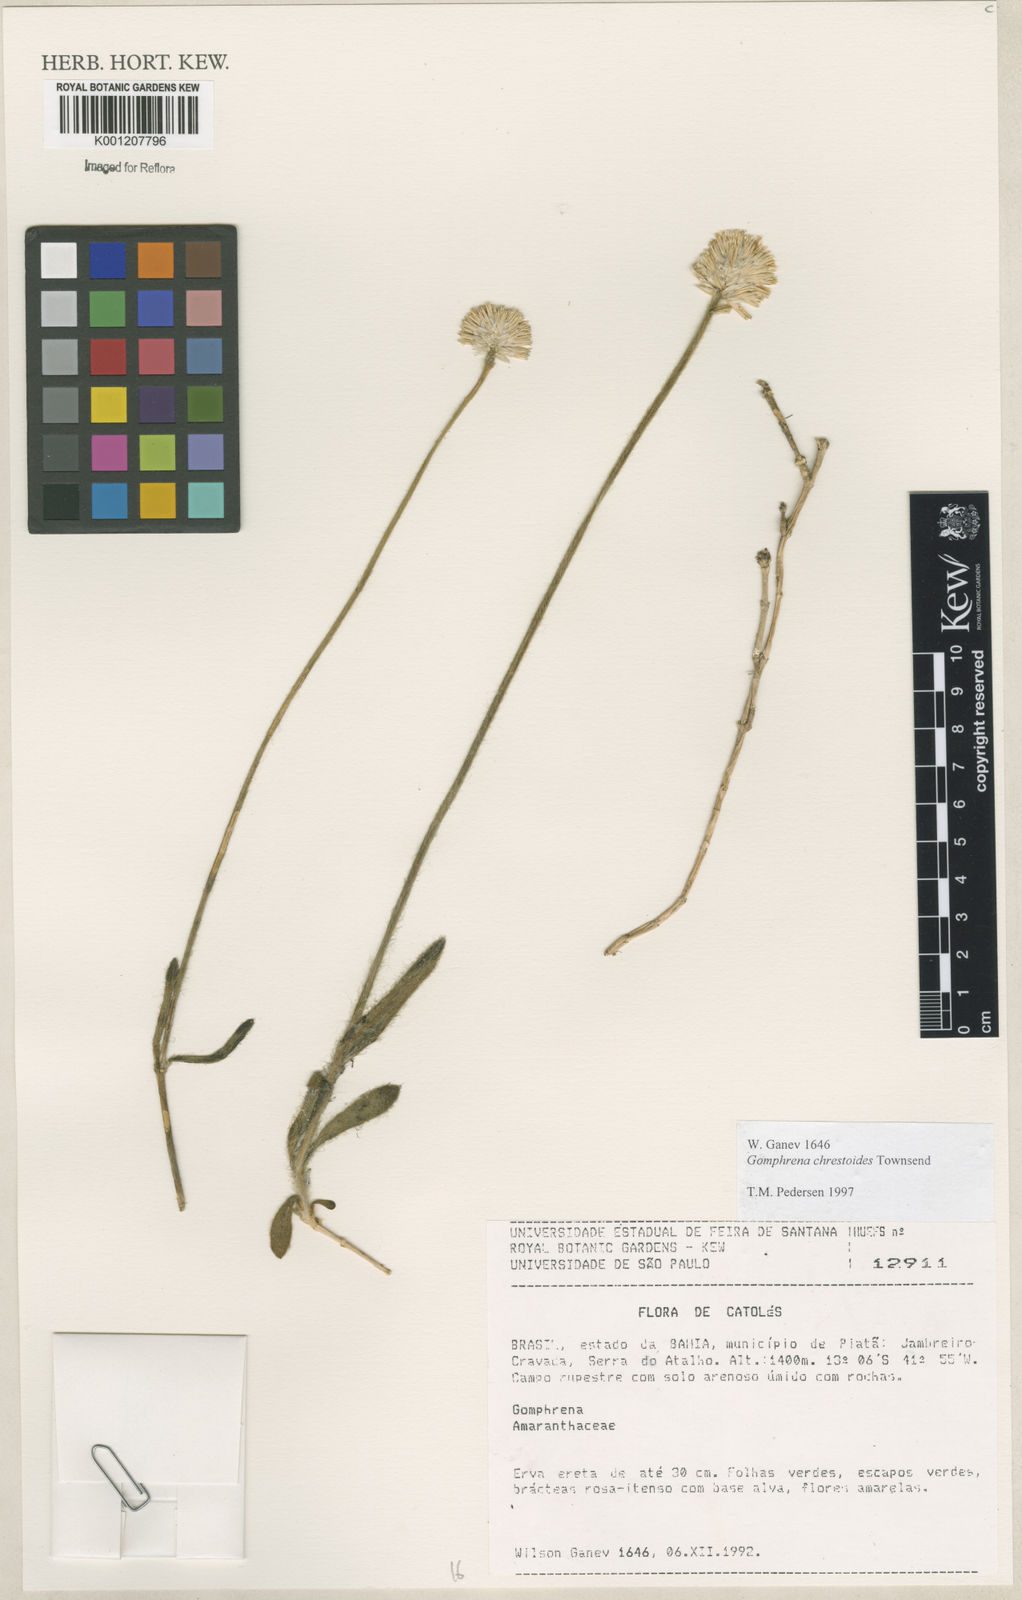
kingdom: Plantae
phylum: Tracheophyta
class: Magnoliopsida
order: Caryophyllales
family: Amaranthaceae
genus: Gomphrena
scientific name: Gomphrena chrestoides
